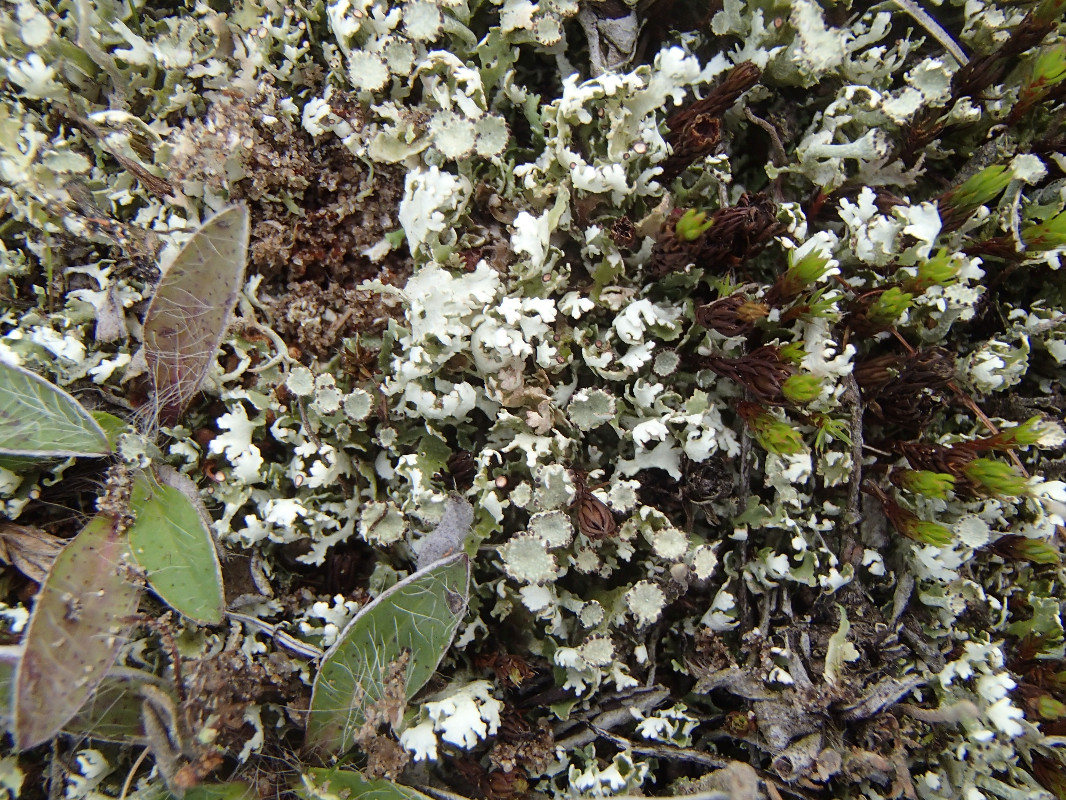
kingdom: Fungi
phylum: Ascomycota
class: Lecanoromycetes
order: Lecanorales
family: Cladoniaceae
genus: Cladonia
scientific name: Cladonia foliacea
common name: fliget bægerlav
